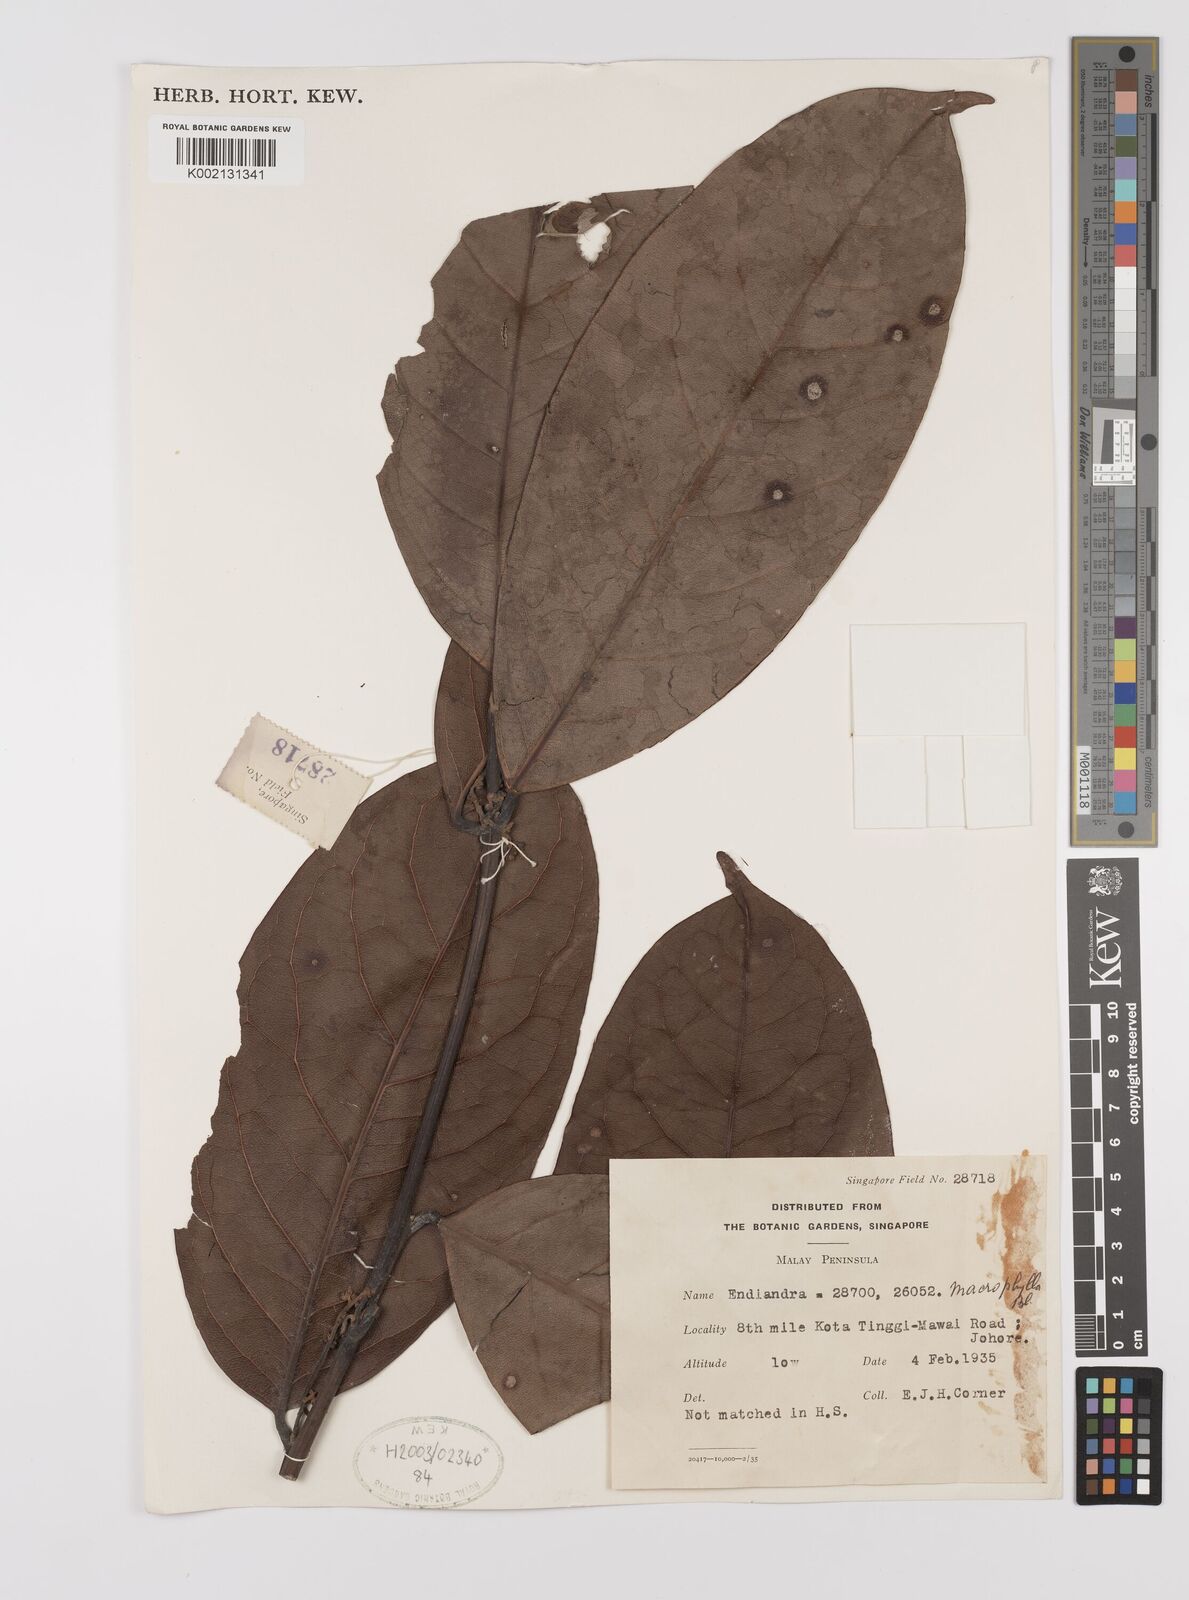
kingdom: Plantae
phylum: Tracheophyta
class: Magnoliopsida
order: Laurales
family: Lauraceae
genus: Endiandra
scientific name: Endiandra macrophylla
